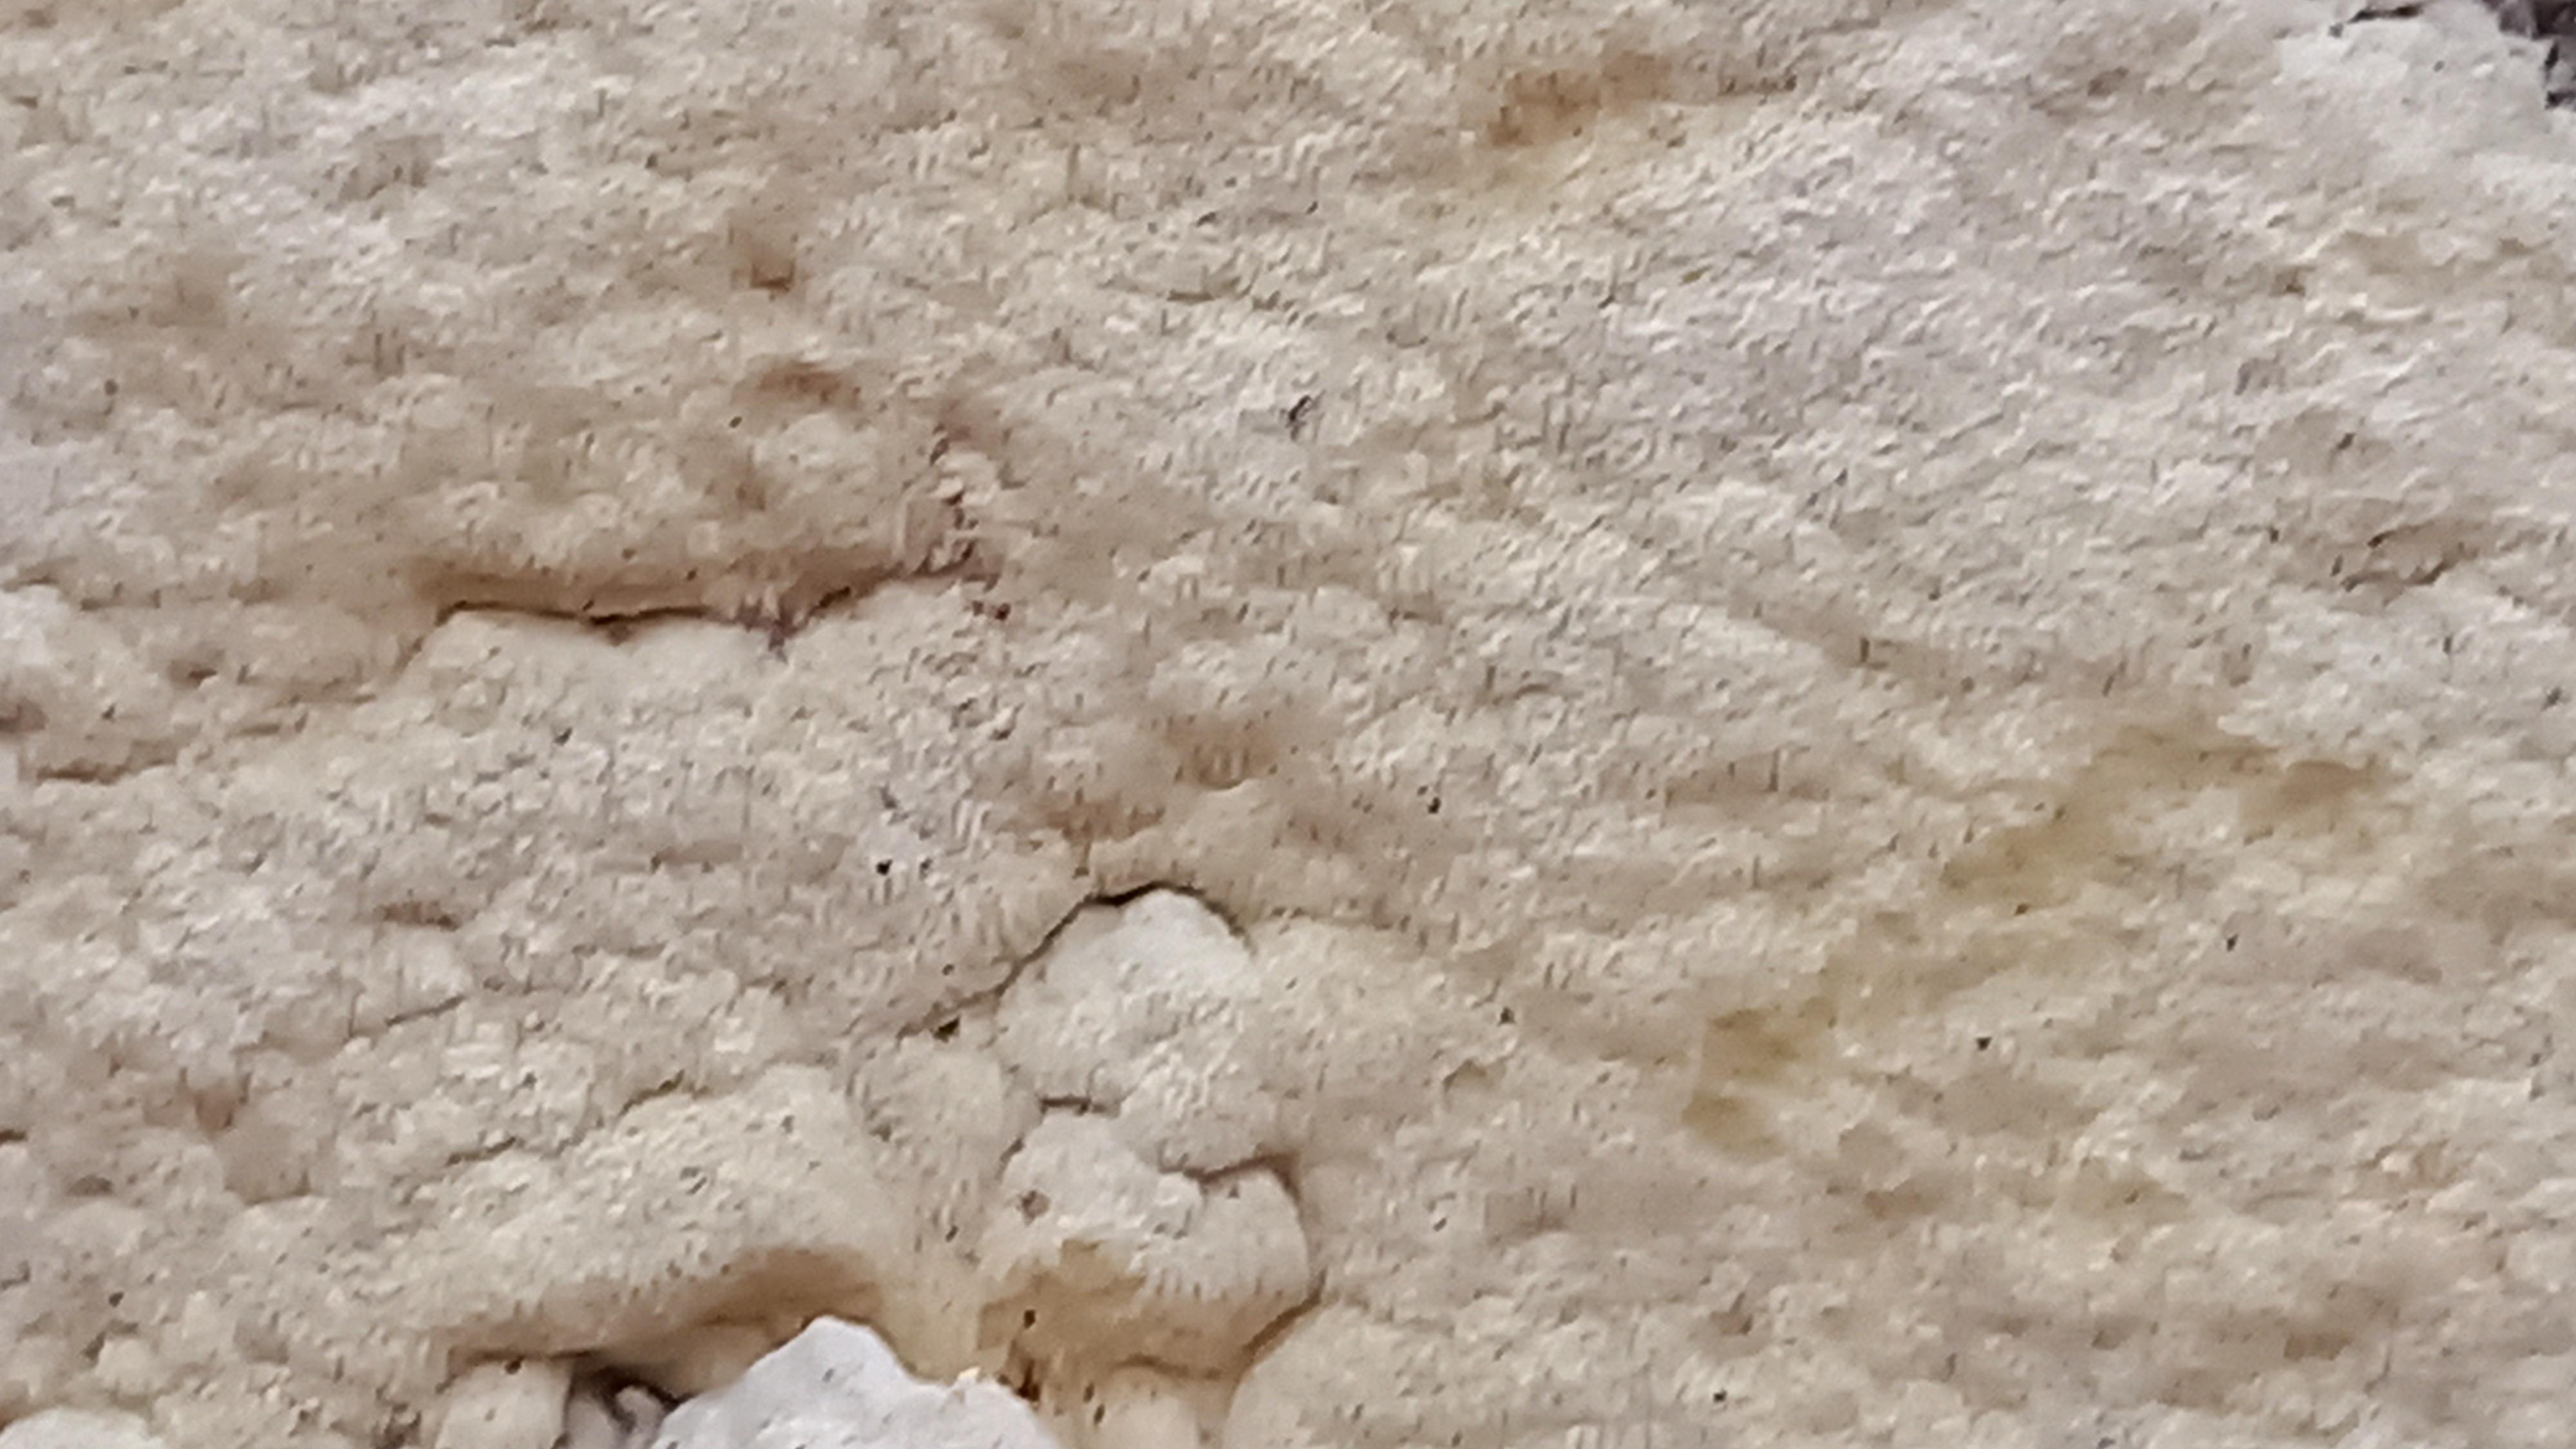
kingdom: Fungi
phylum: Basidiomycota
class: Agaricomycetes
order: Polyporales
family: Fomitopsidaceae
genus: Daedalea
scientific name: Daedalea xantha
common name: gul sejporesvamp
